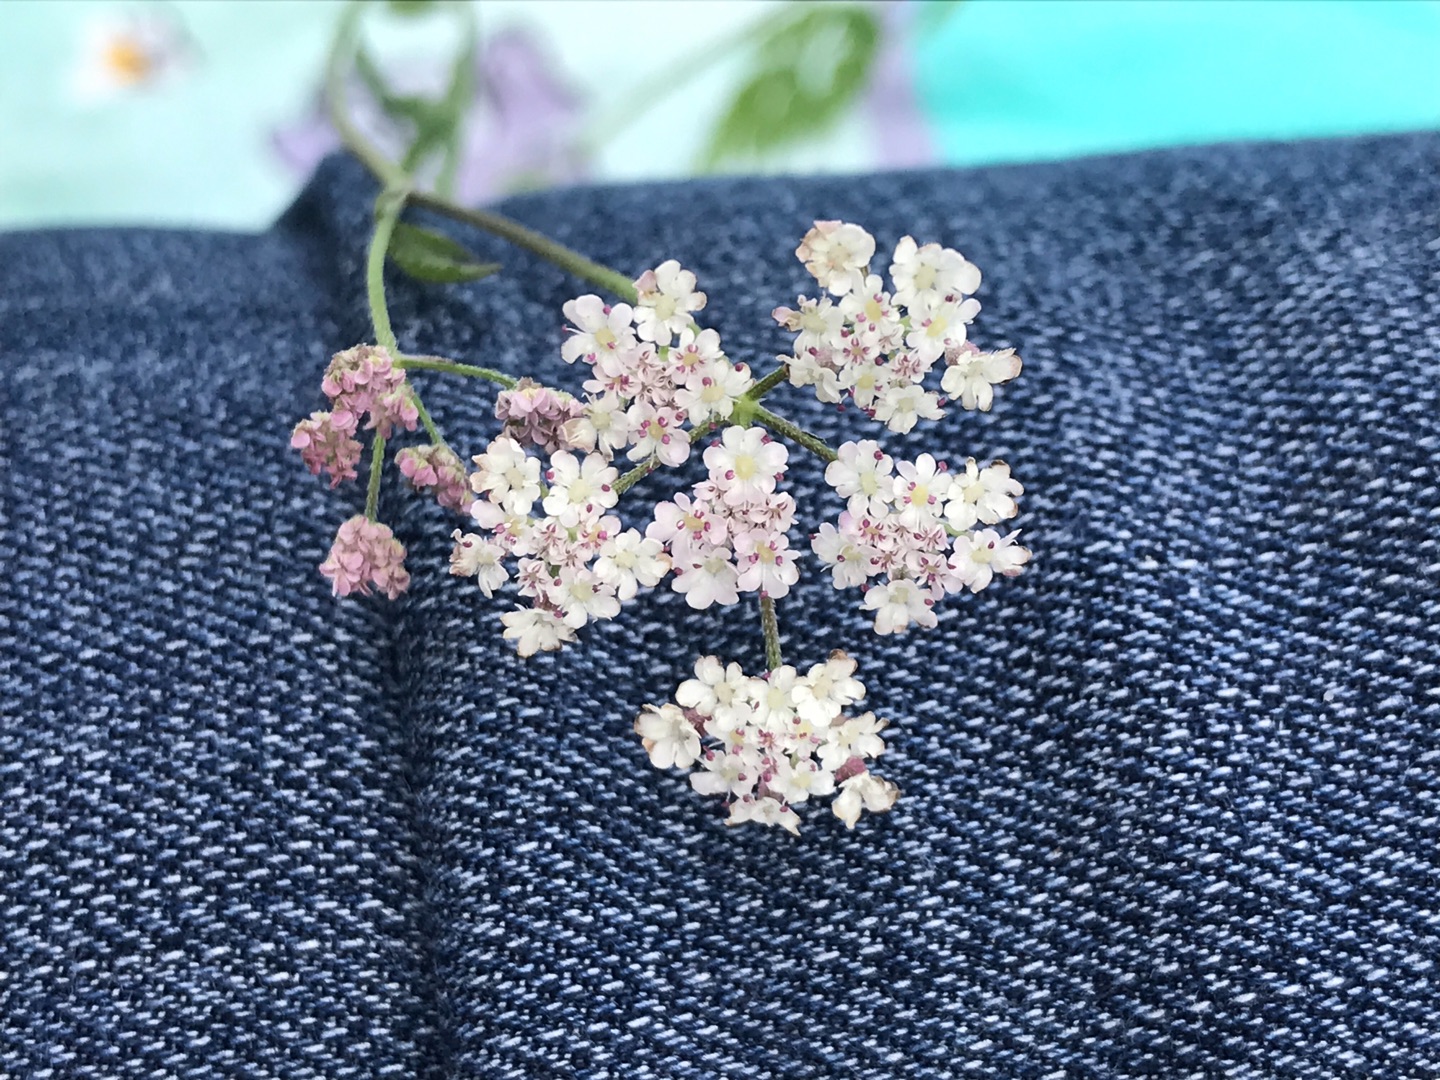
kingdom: Plantae
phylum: Tracheophyta
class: Magnoliopsida
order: Apiales
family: Apiaceae
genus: Torilis
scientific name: Torilis japonica
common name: Hvas randfrø
